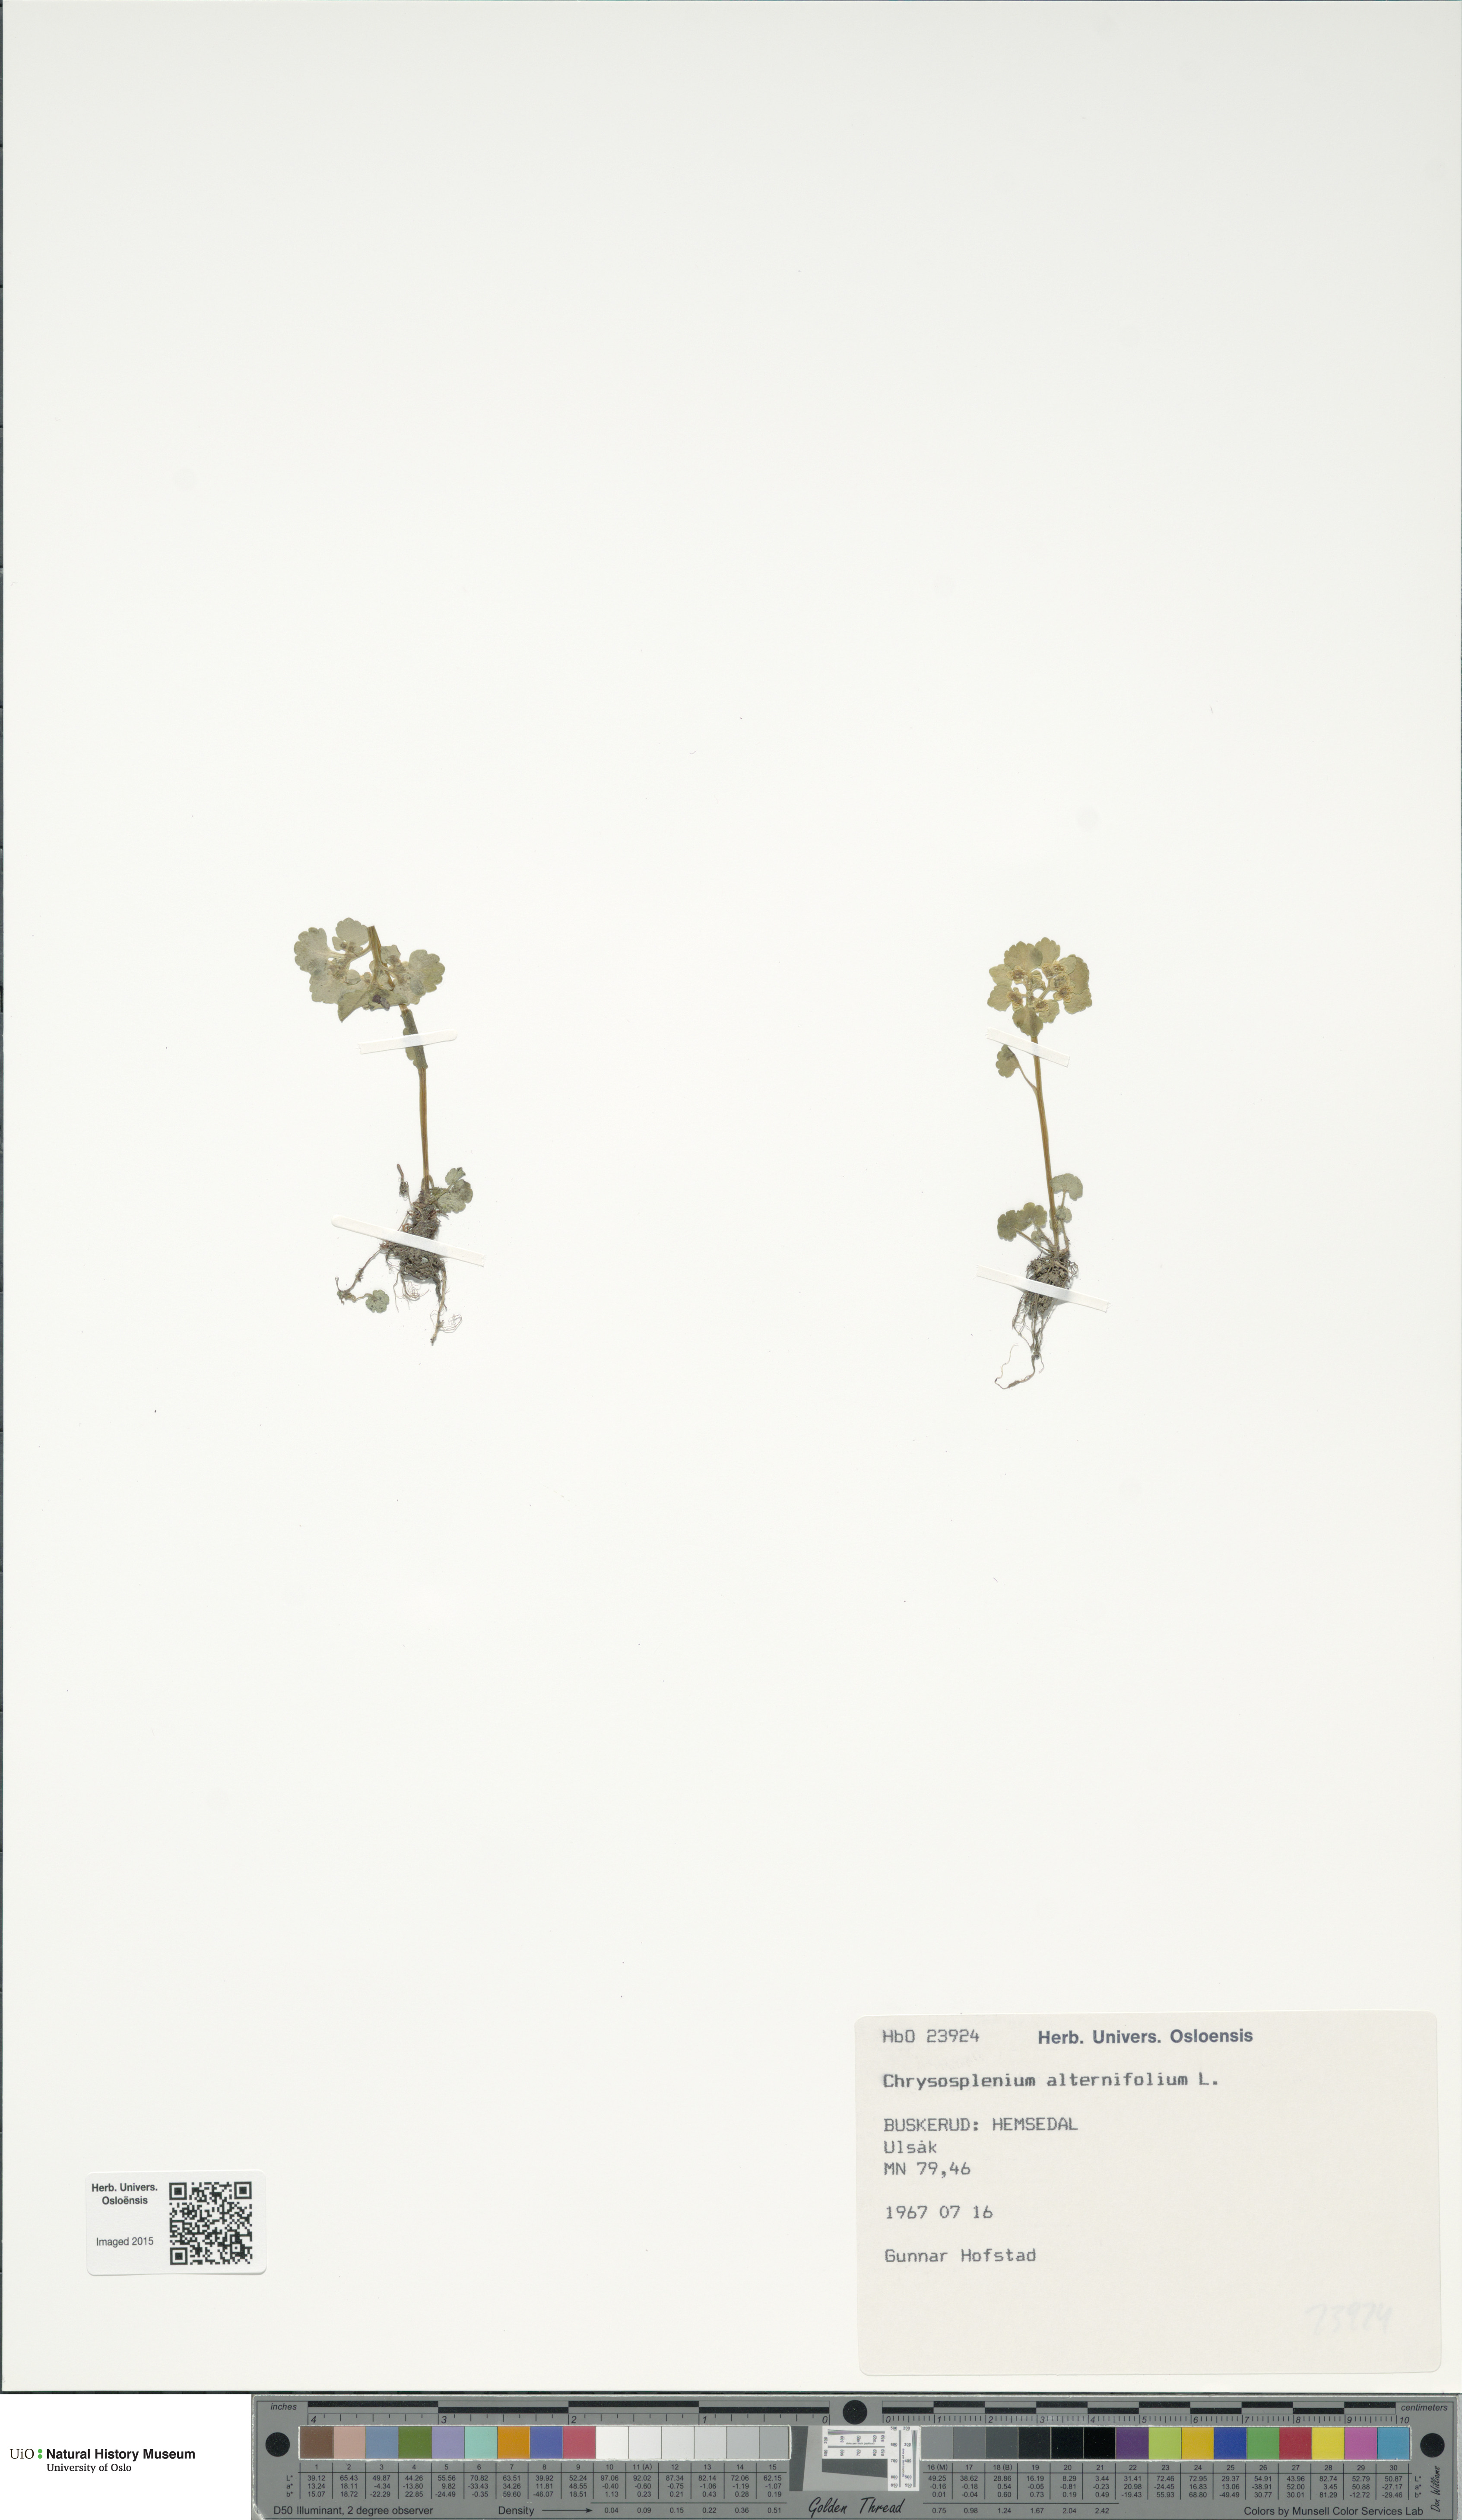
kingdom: Plantae
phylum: Tracheophyta
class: Magnoliopsida
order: Saxifragales
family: Saxifragaceae
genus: Chrysosplenium
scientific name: Chrysosplenium alternifolium
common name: Alternate-leaved golden-saxifrage
